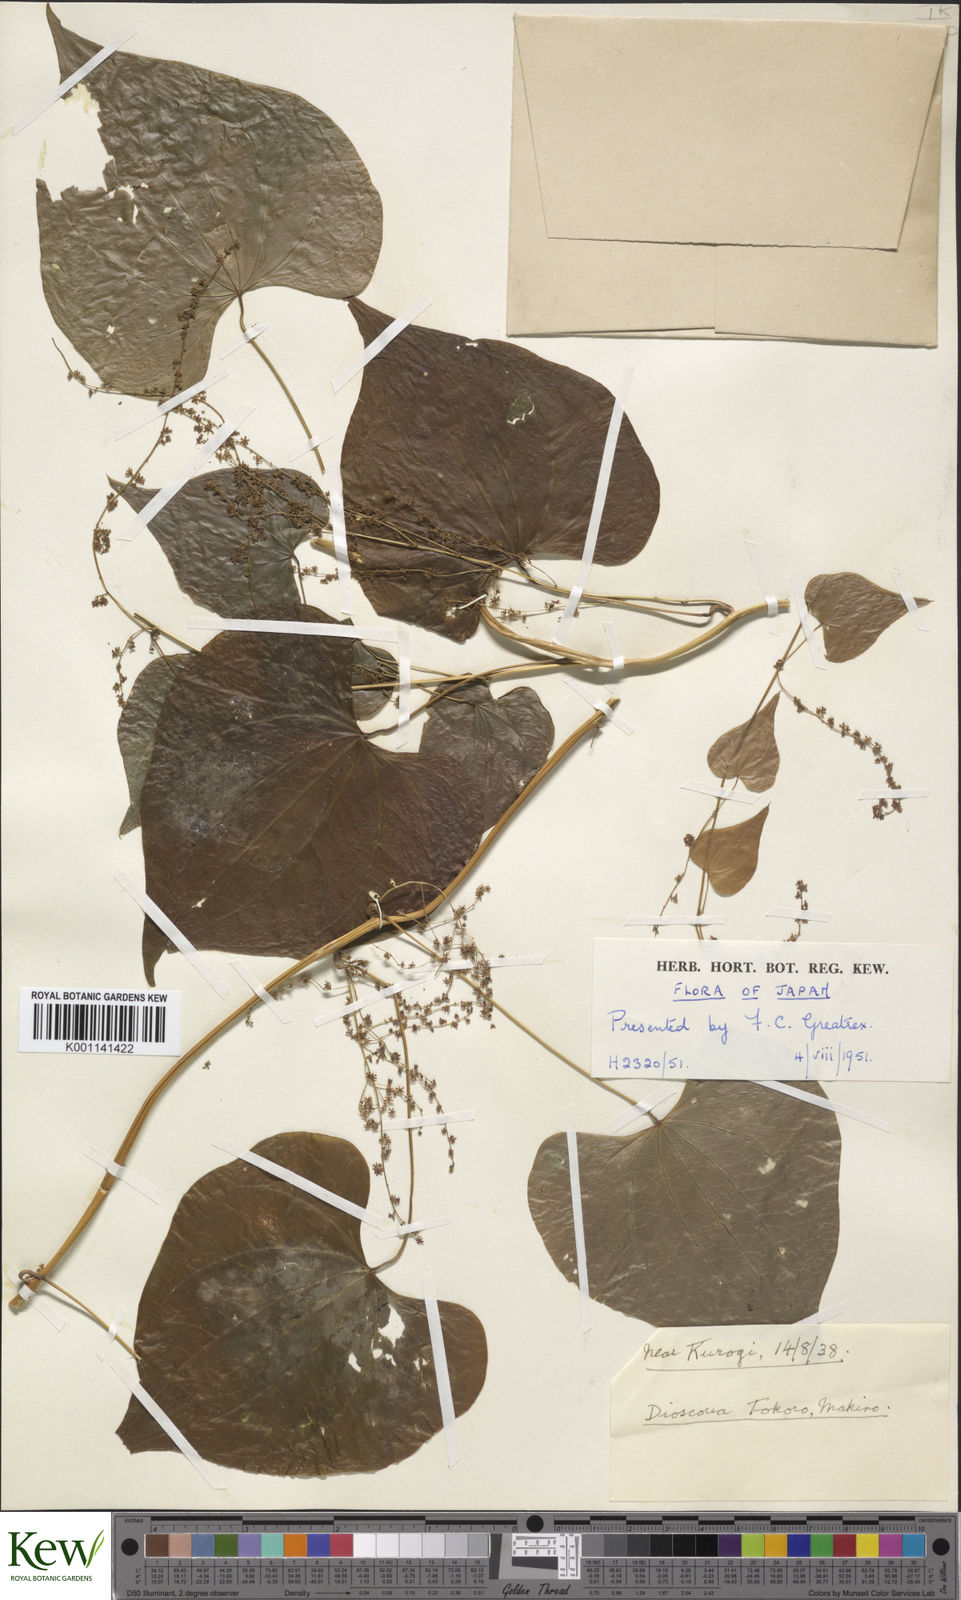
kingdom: Plantae
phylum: Tracheophyta
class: Liliopsida
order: Dioscoreales
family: Dioscoreaceae
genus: Dioscorea
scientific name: Dioscorea tokoro
